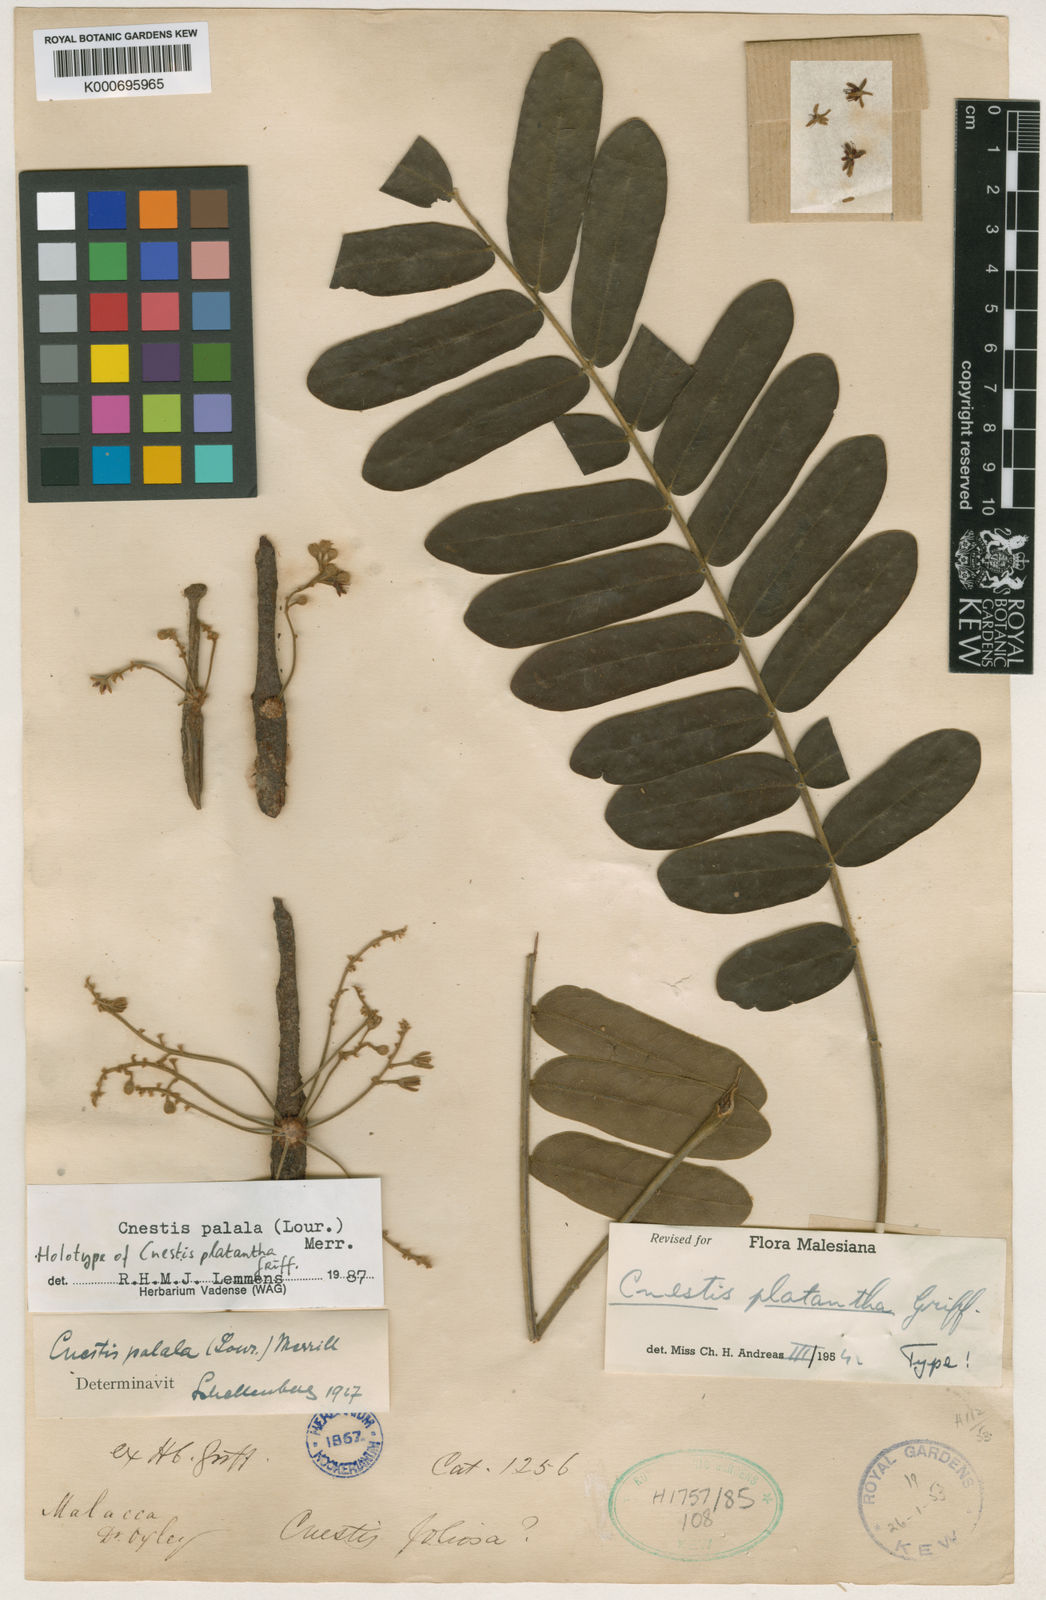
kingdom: Plantae
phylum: Tracheophyta
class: Magnoliopsida
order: Oxalidales
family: Connaraceae
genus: Cnestis
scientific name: Cnestis palala
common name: Stinging-hair cnestis
